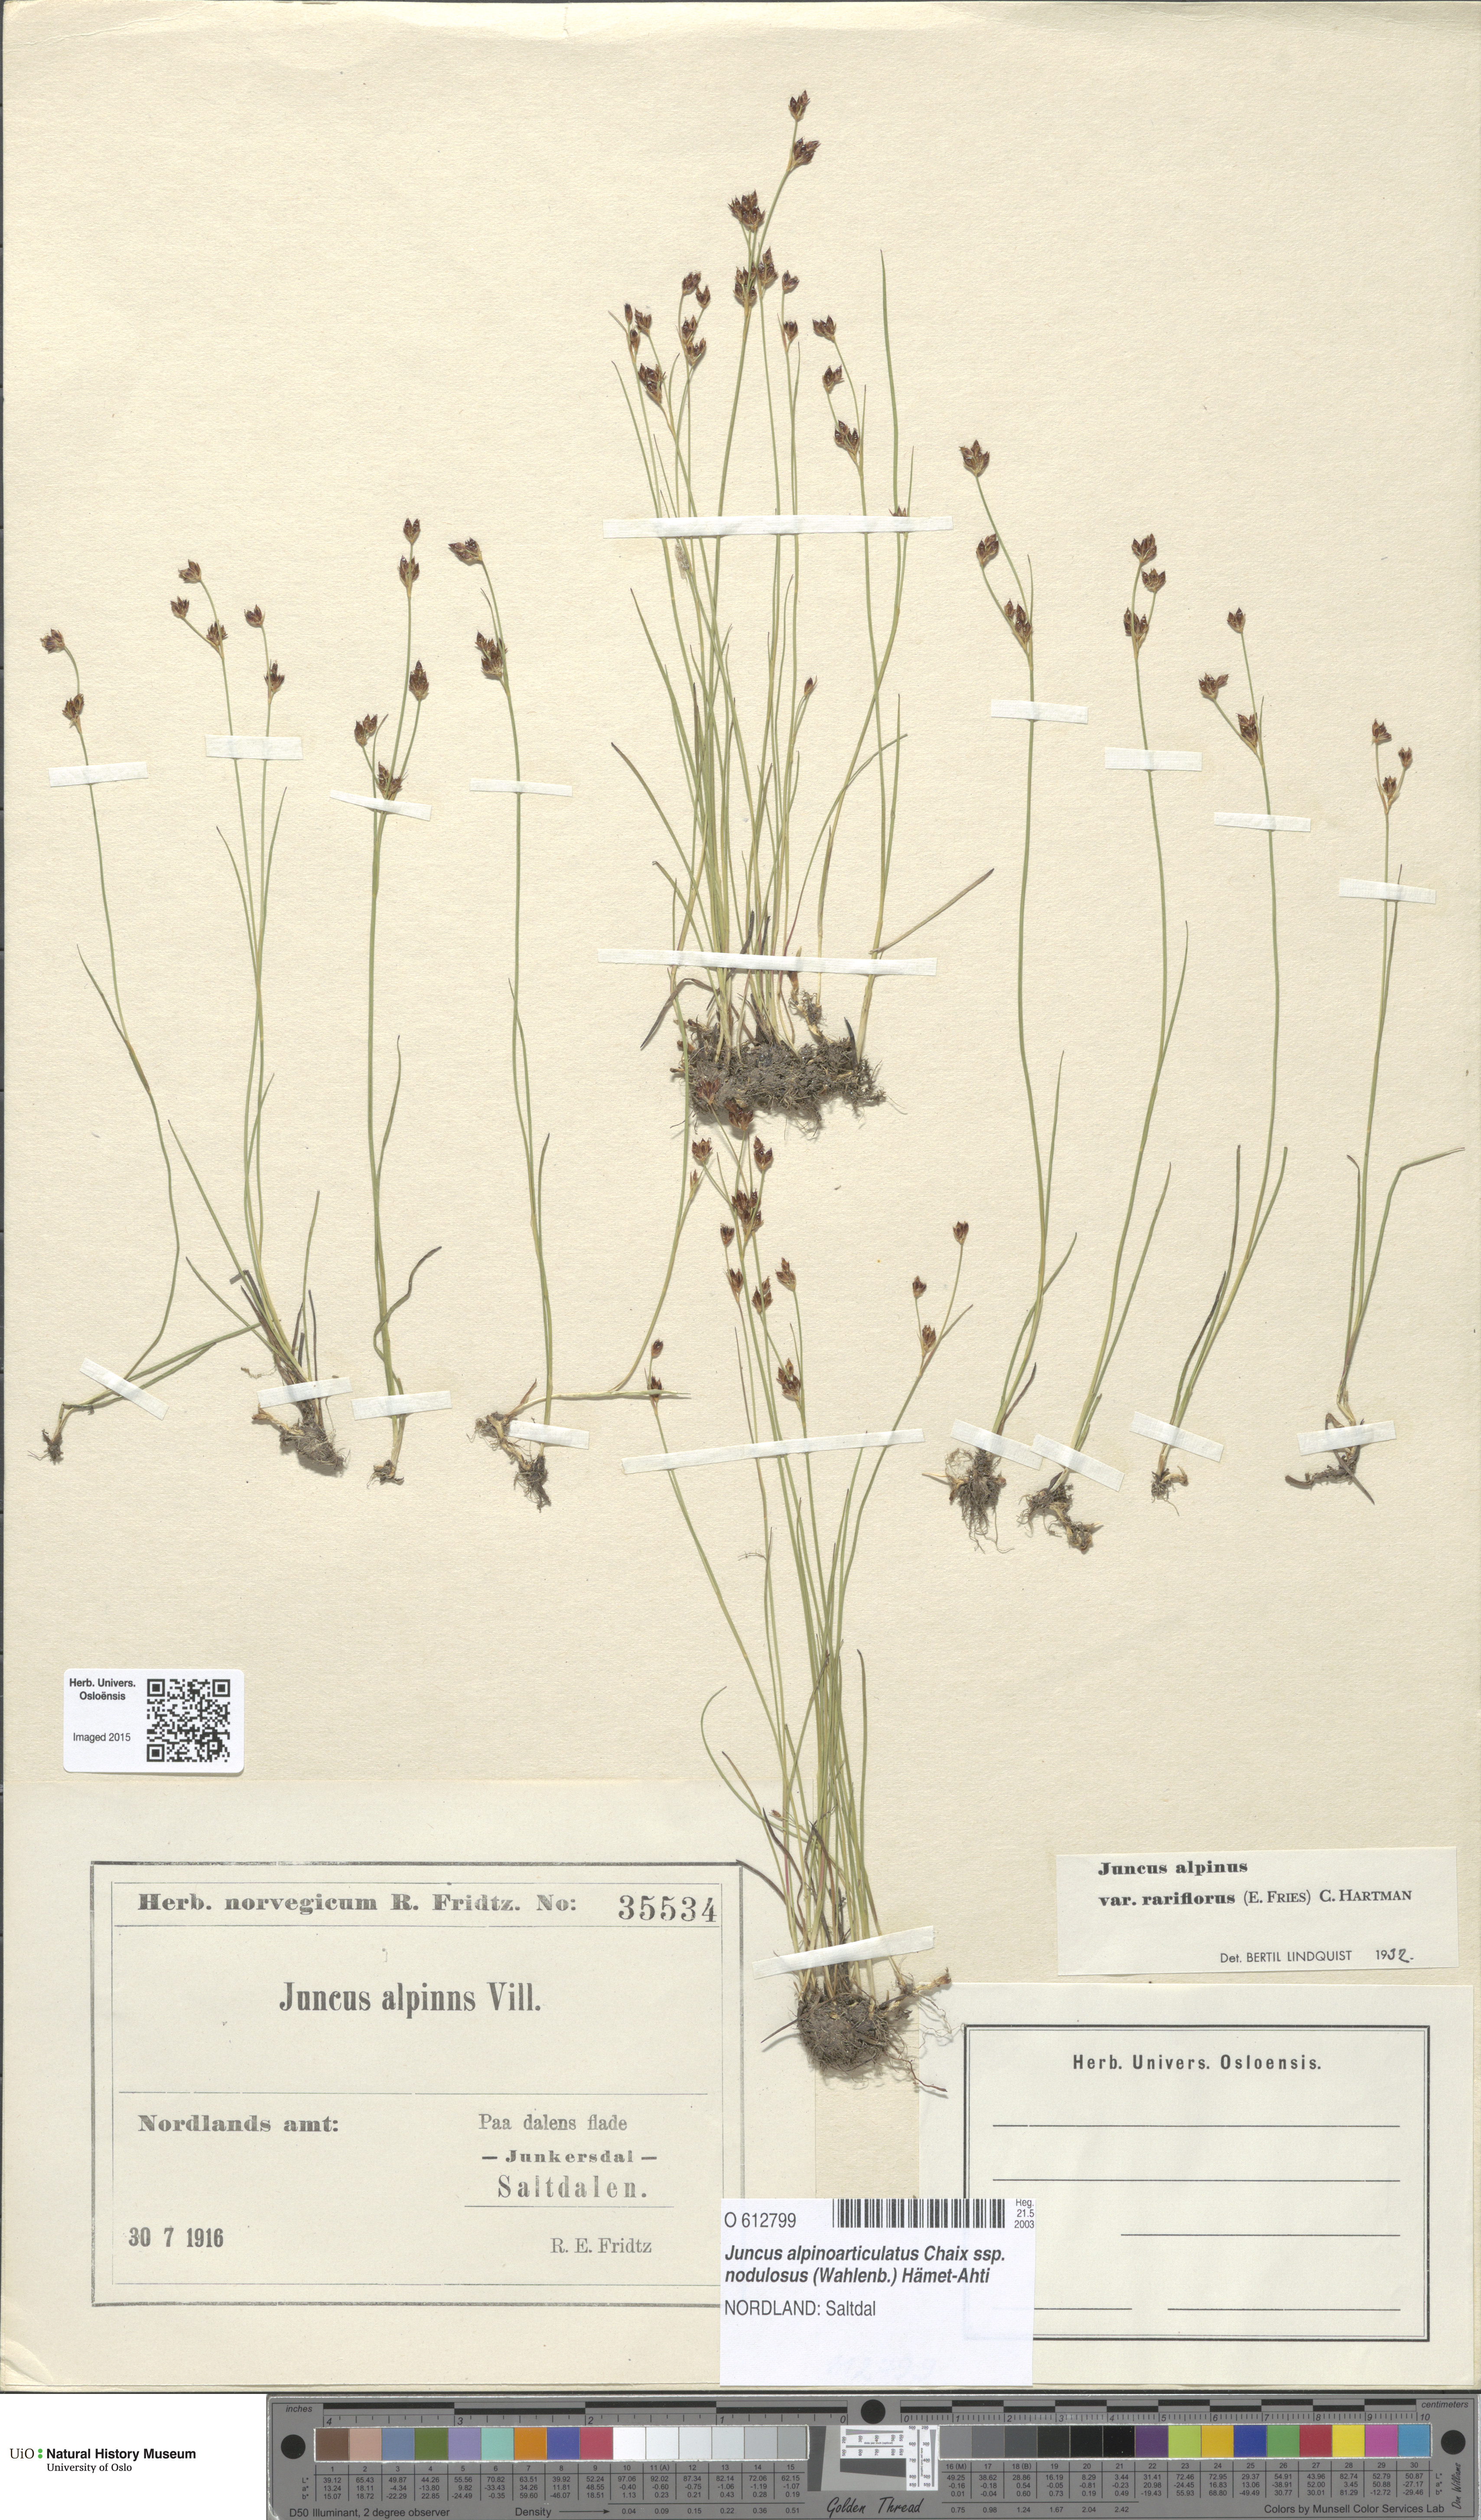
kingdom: Plantae
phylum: Tracheophyta
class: Liliopsida
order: Poales
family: Juncaceae
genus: Juncus
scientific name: Juncus alpinoarticulatus
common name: Alpine rush
